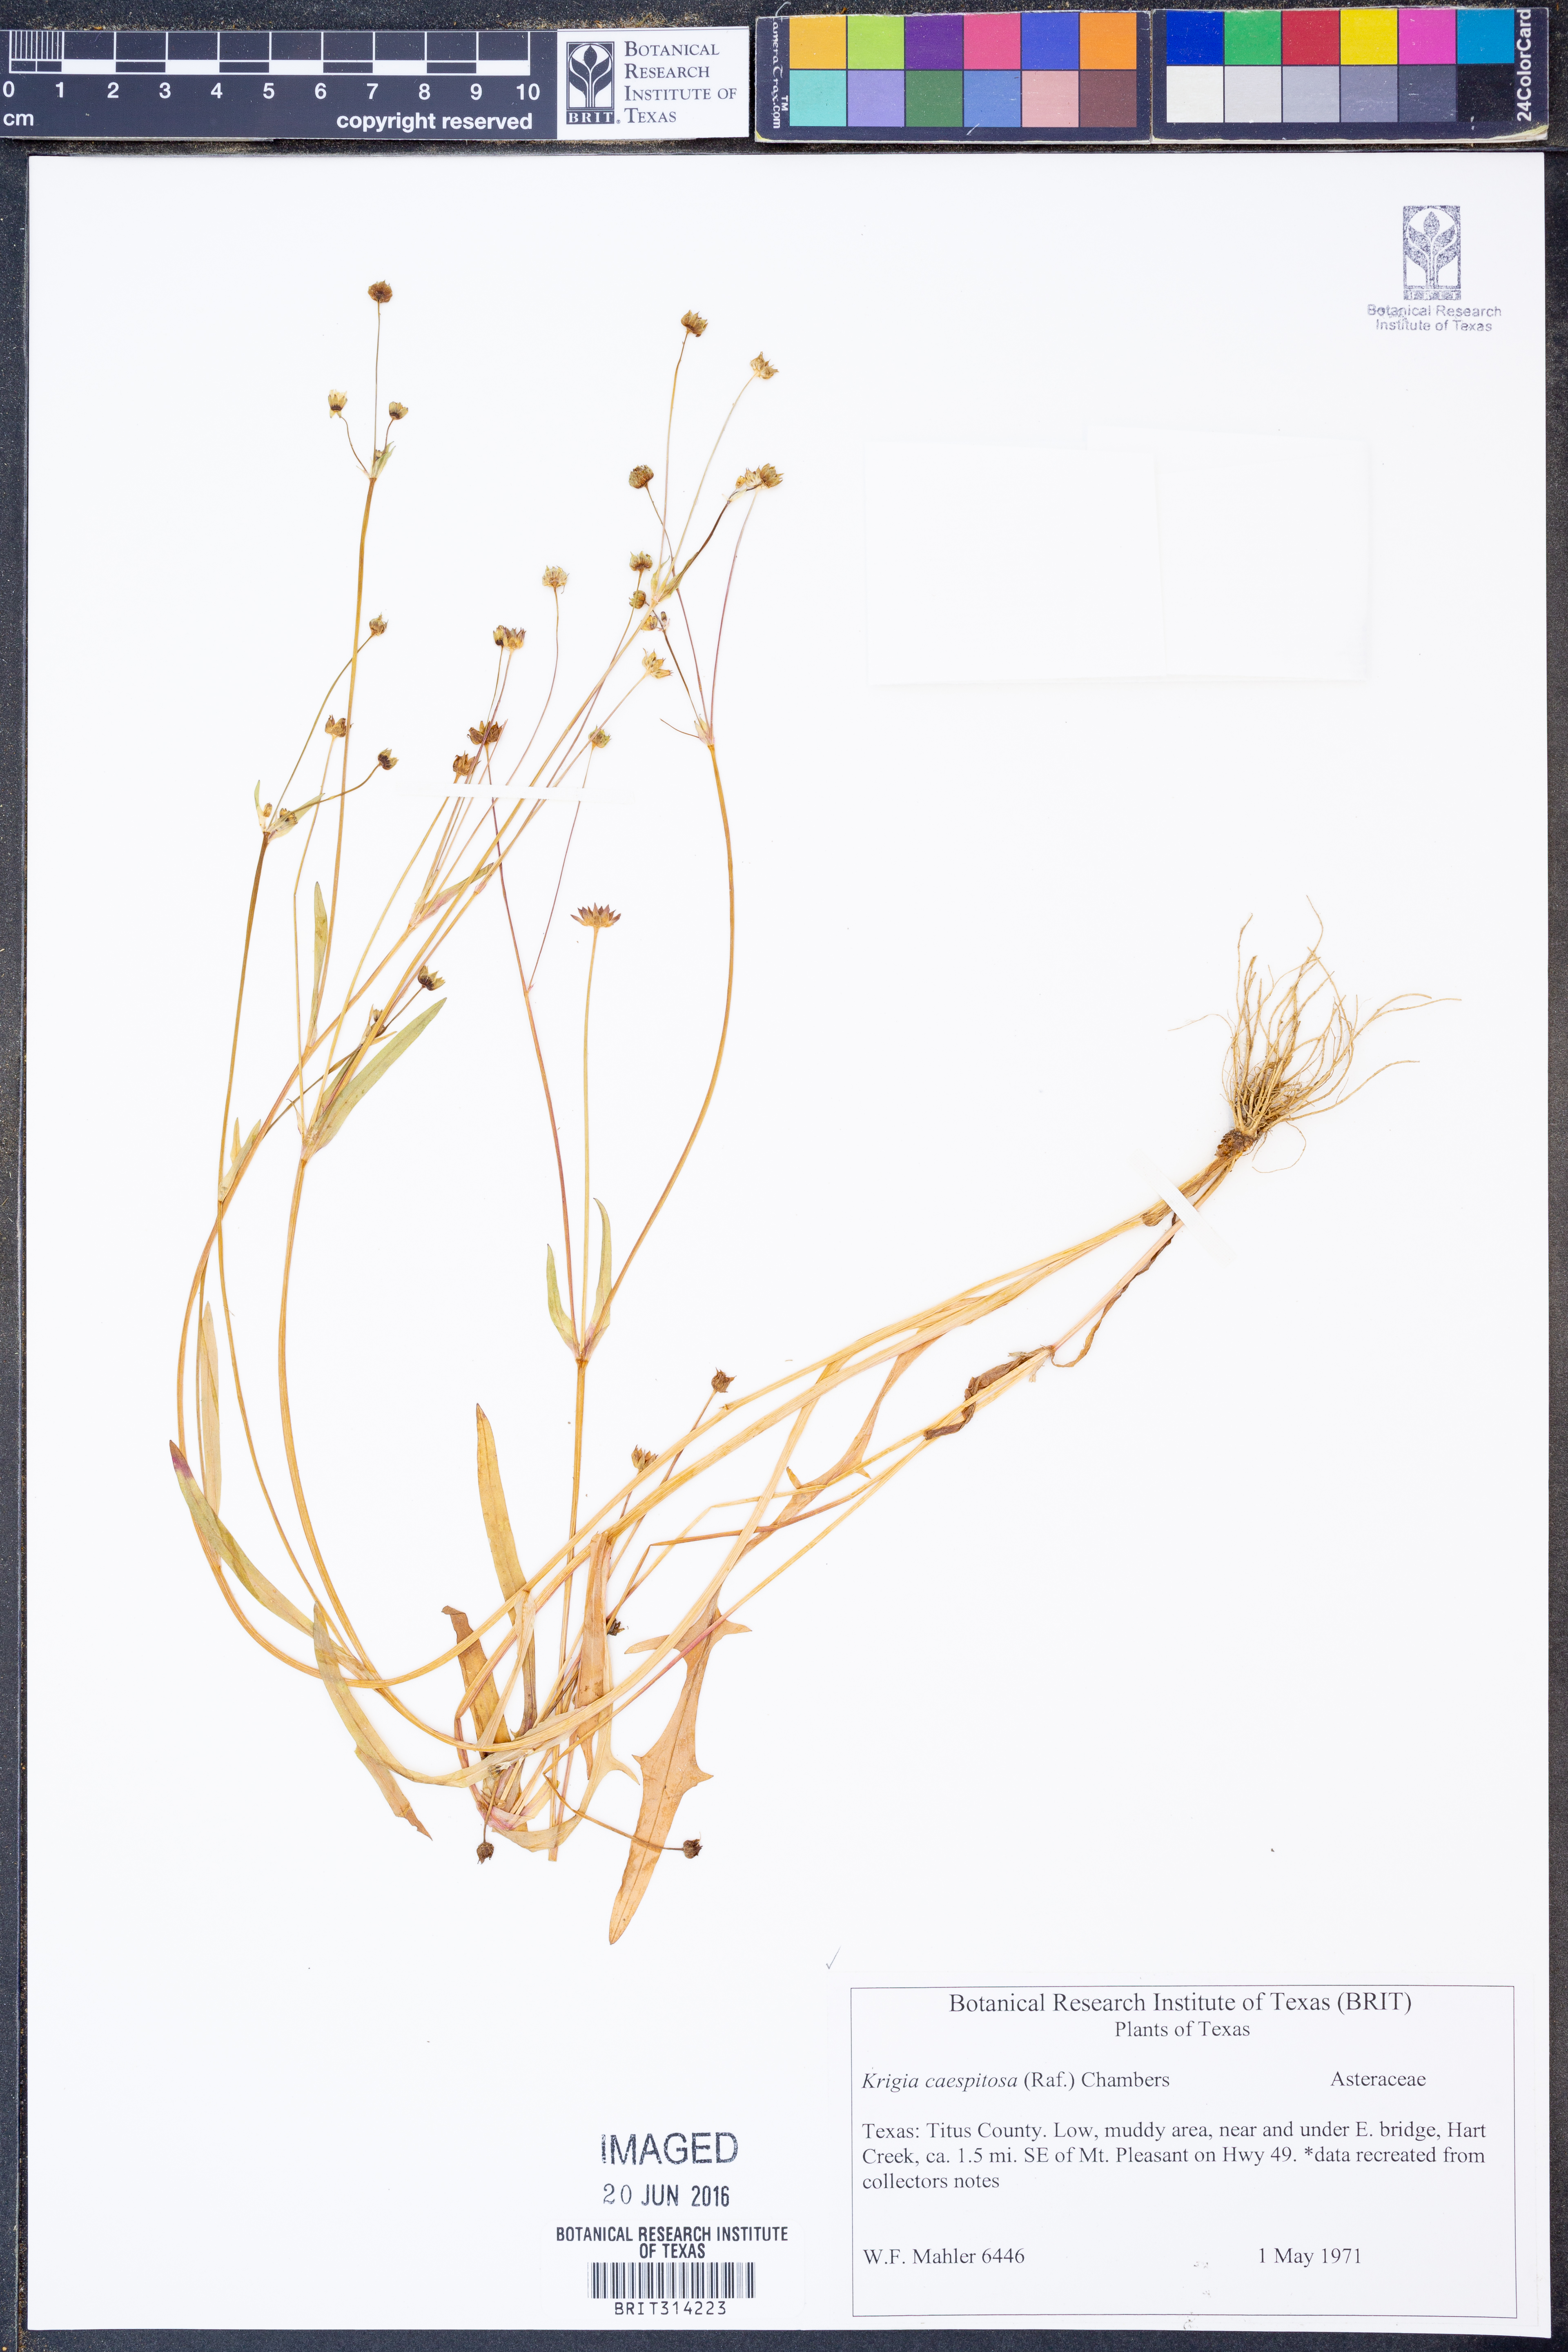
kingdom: Plantae
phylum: Tracheophyta
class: Magnoliopsida
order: Asterales
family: Asteraceae
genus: Krigia
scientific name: Krigia cespitosa
